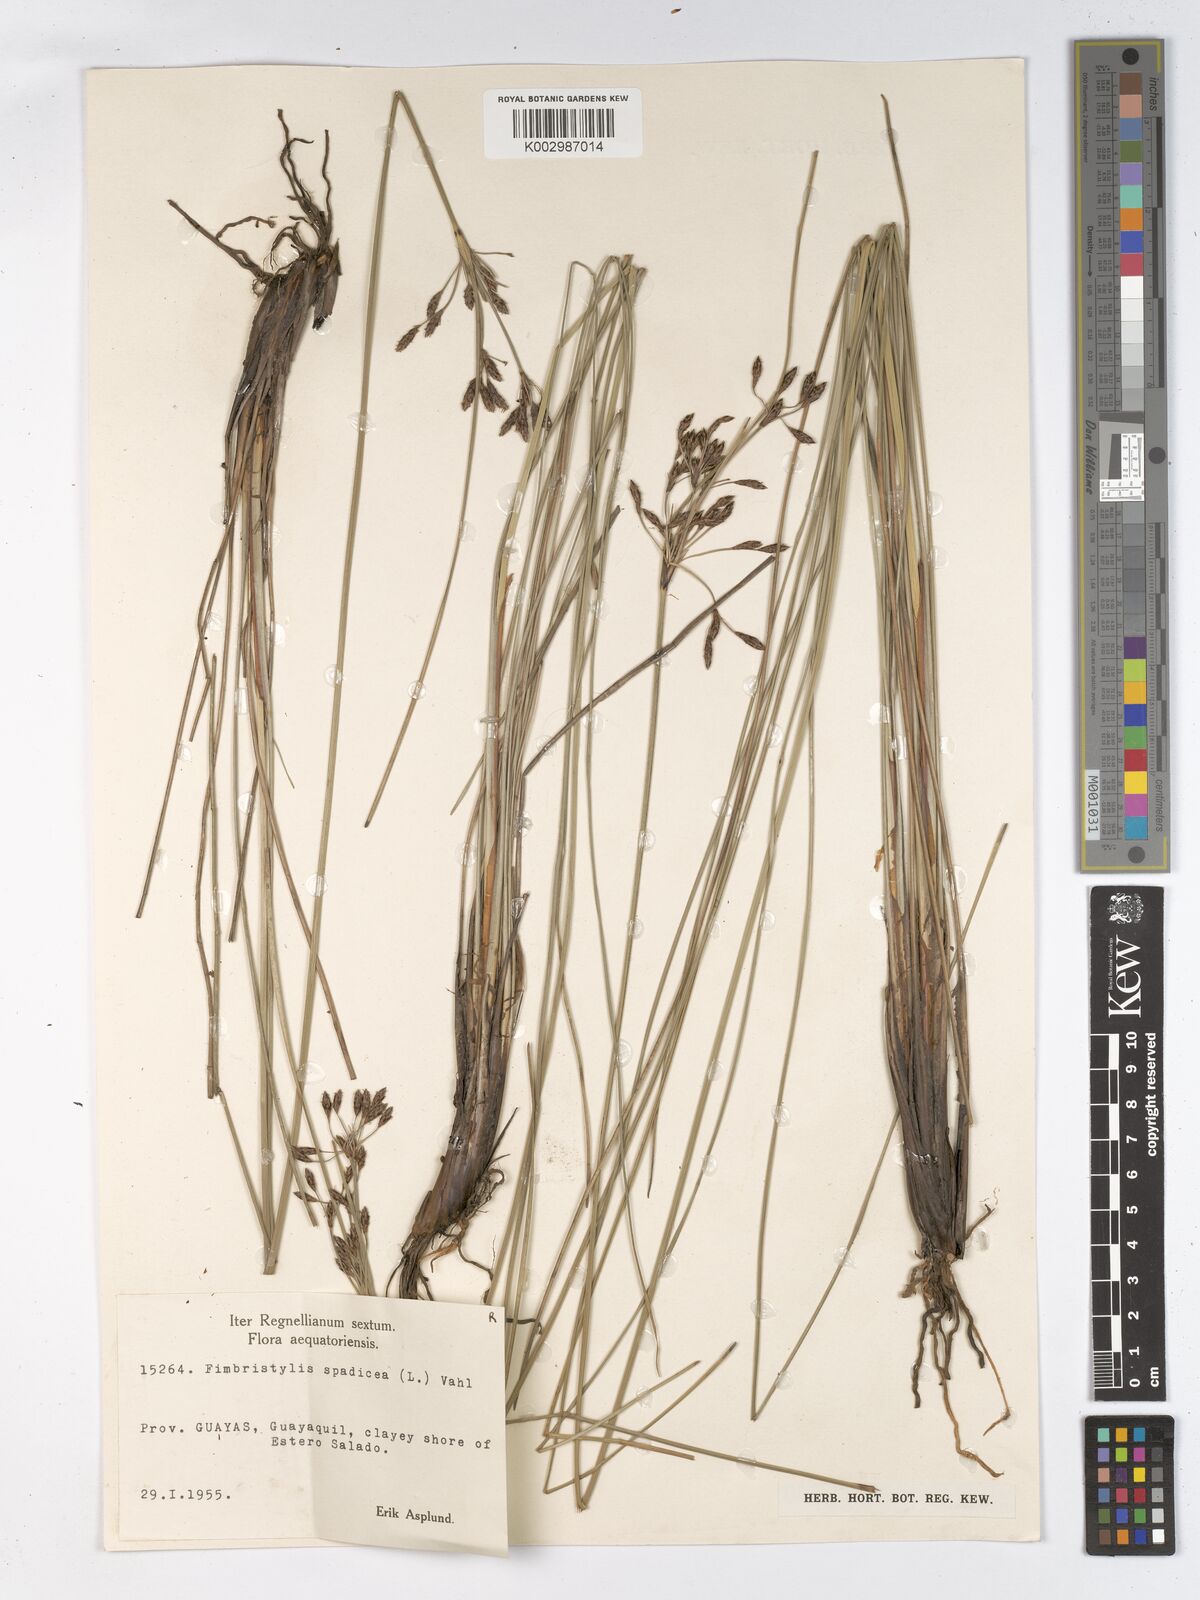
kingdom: Plantae
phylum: Tracheophyta
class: Liliopsida
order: Poales
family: Cyperaceae
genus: Fimbristylis
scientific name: Fimbristylis spadicea
